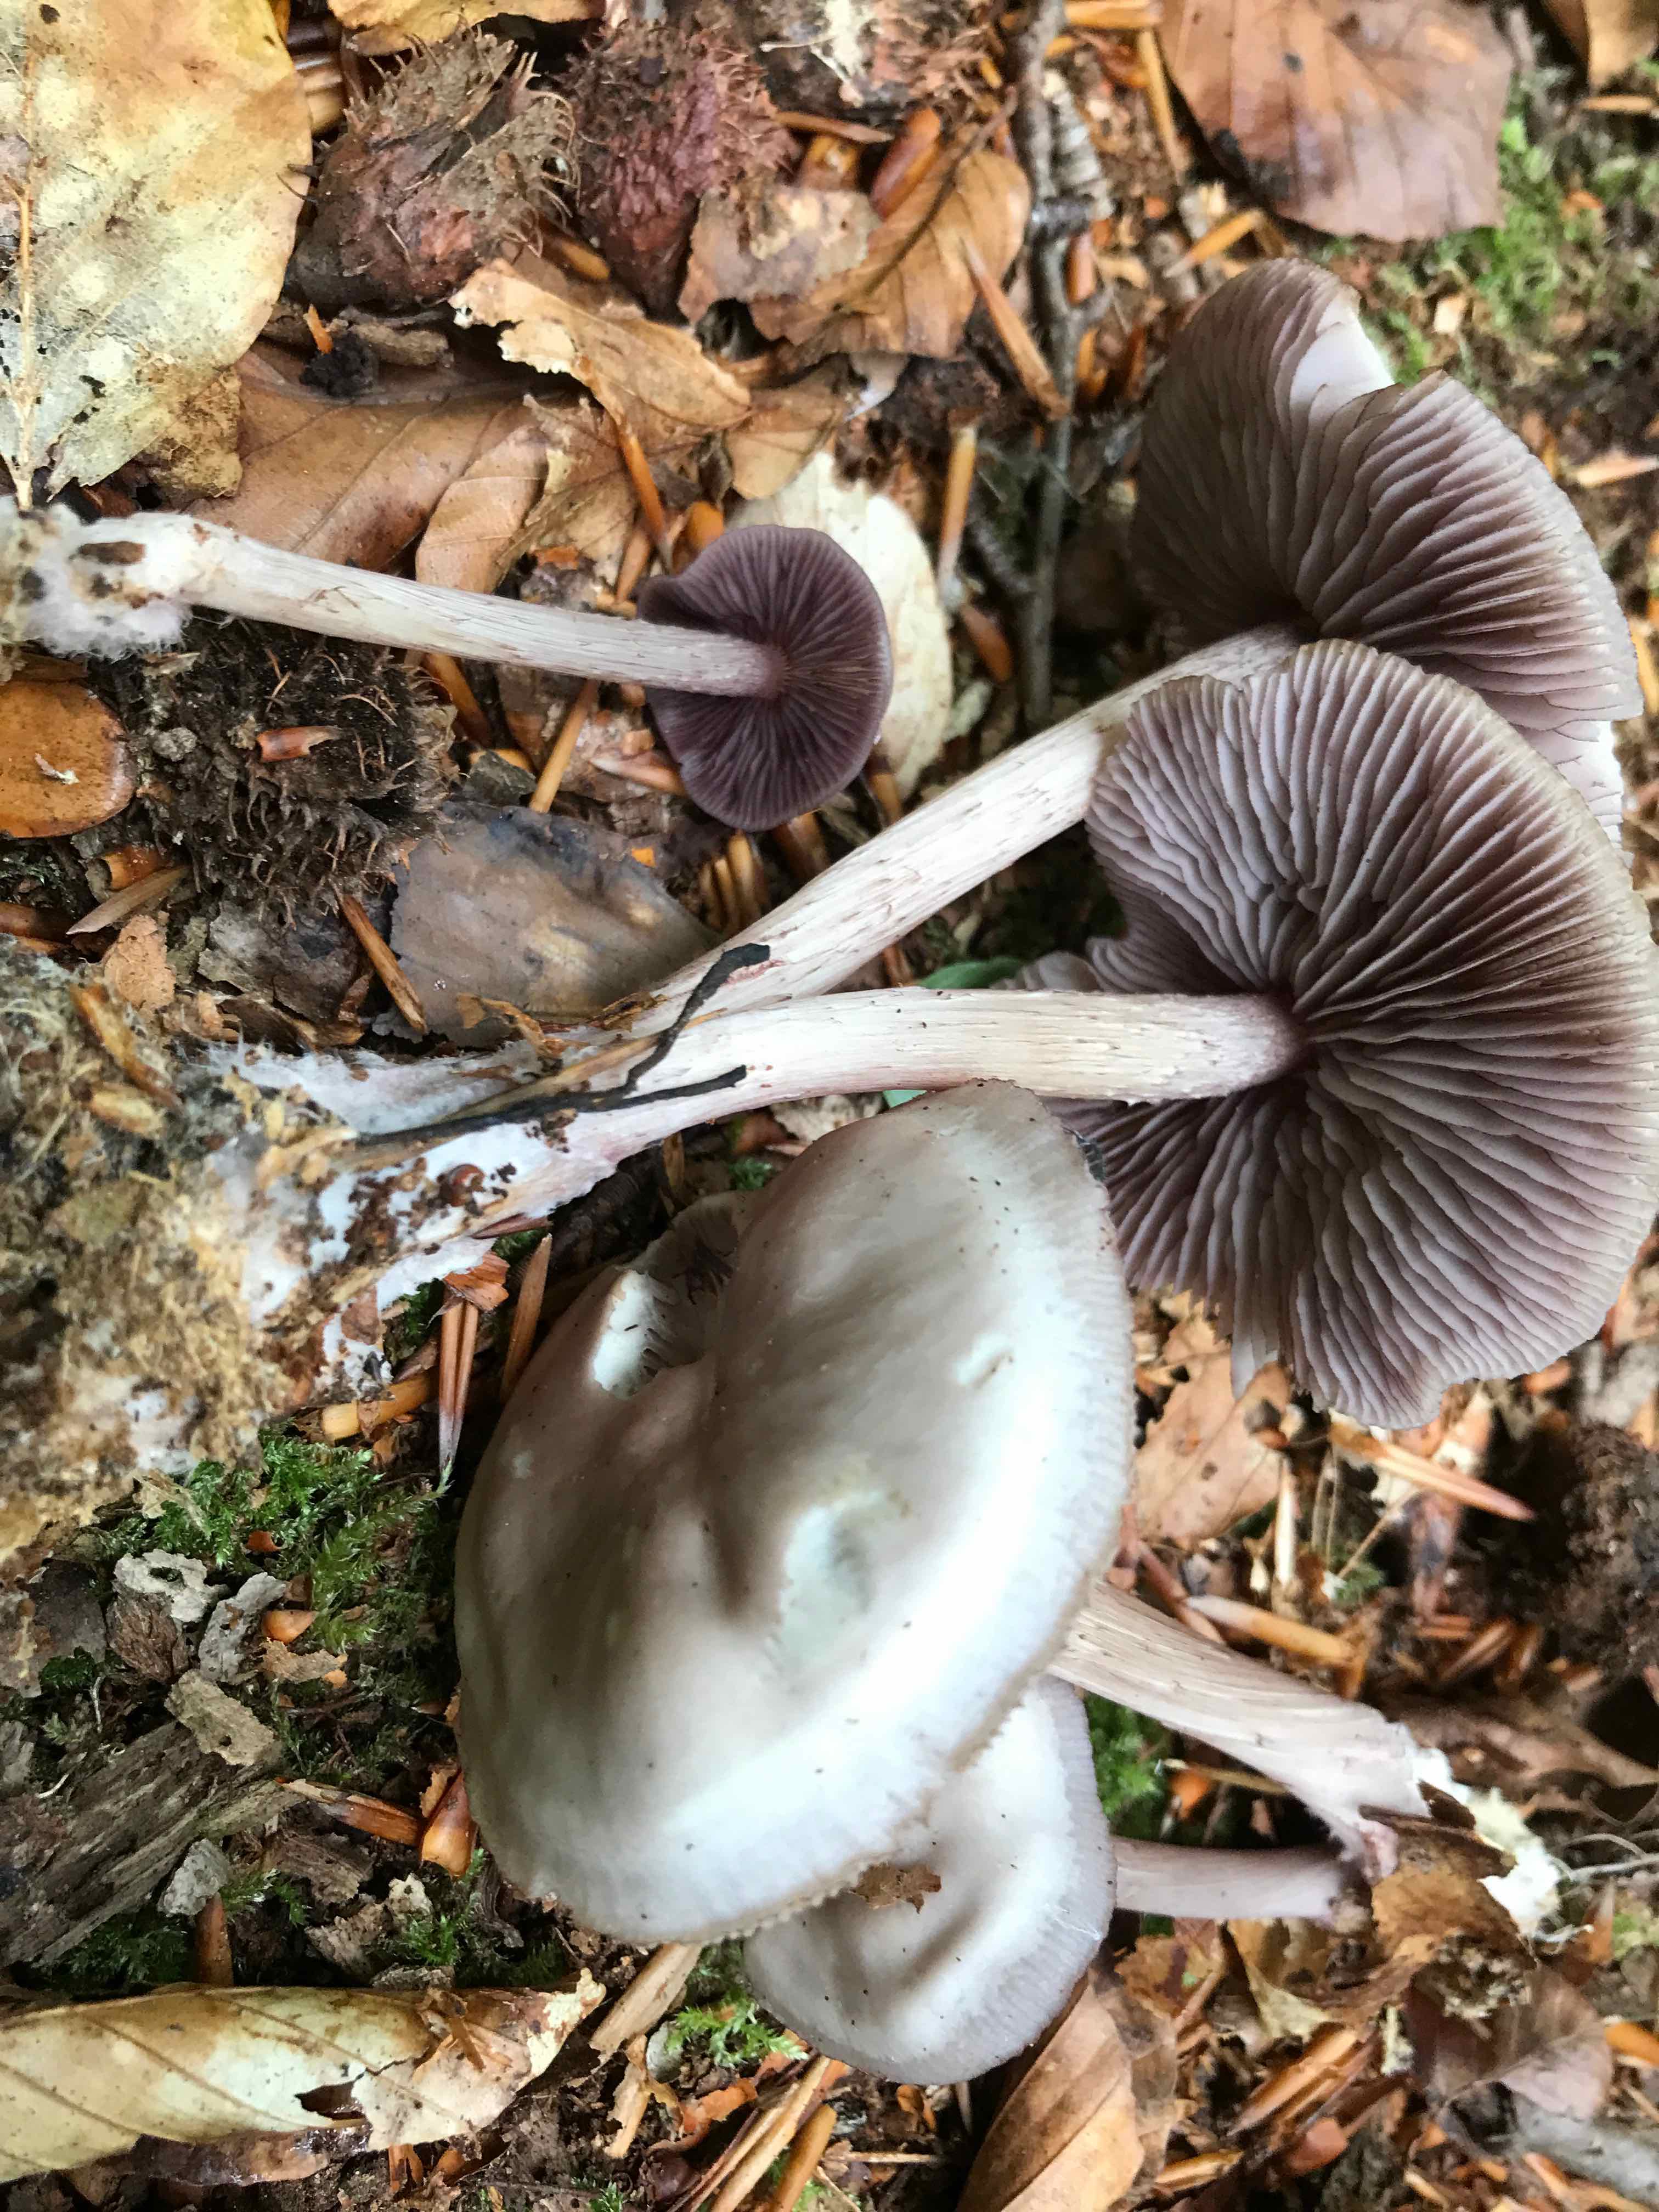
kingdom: Fungi
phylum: Basidiomycota
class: Agaricomycetes
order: Agaricales
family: Mycenaceae
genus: Mycena
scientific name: Mycena pelianthina
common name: mørkbladet huesvamp
